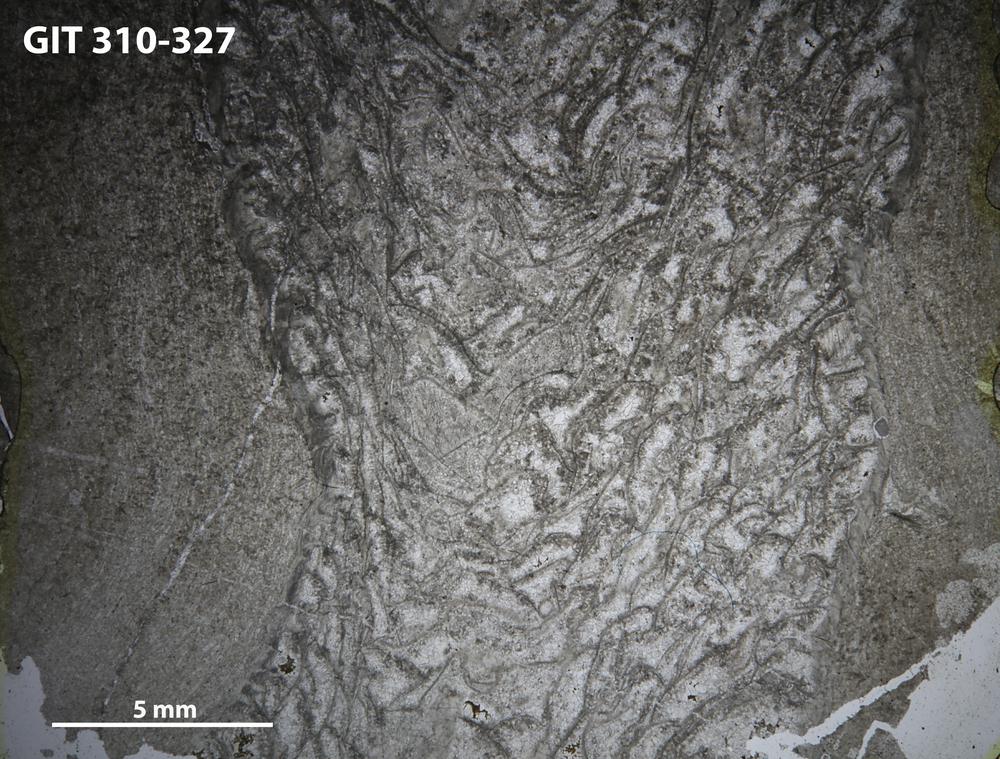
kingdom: Animalia
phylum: Porifera
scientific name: Porifera
